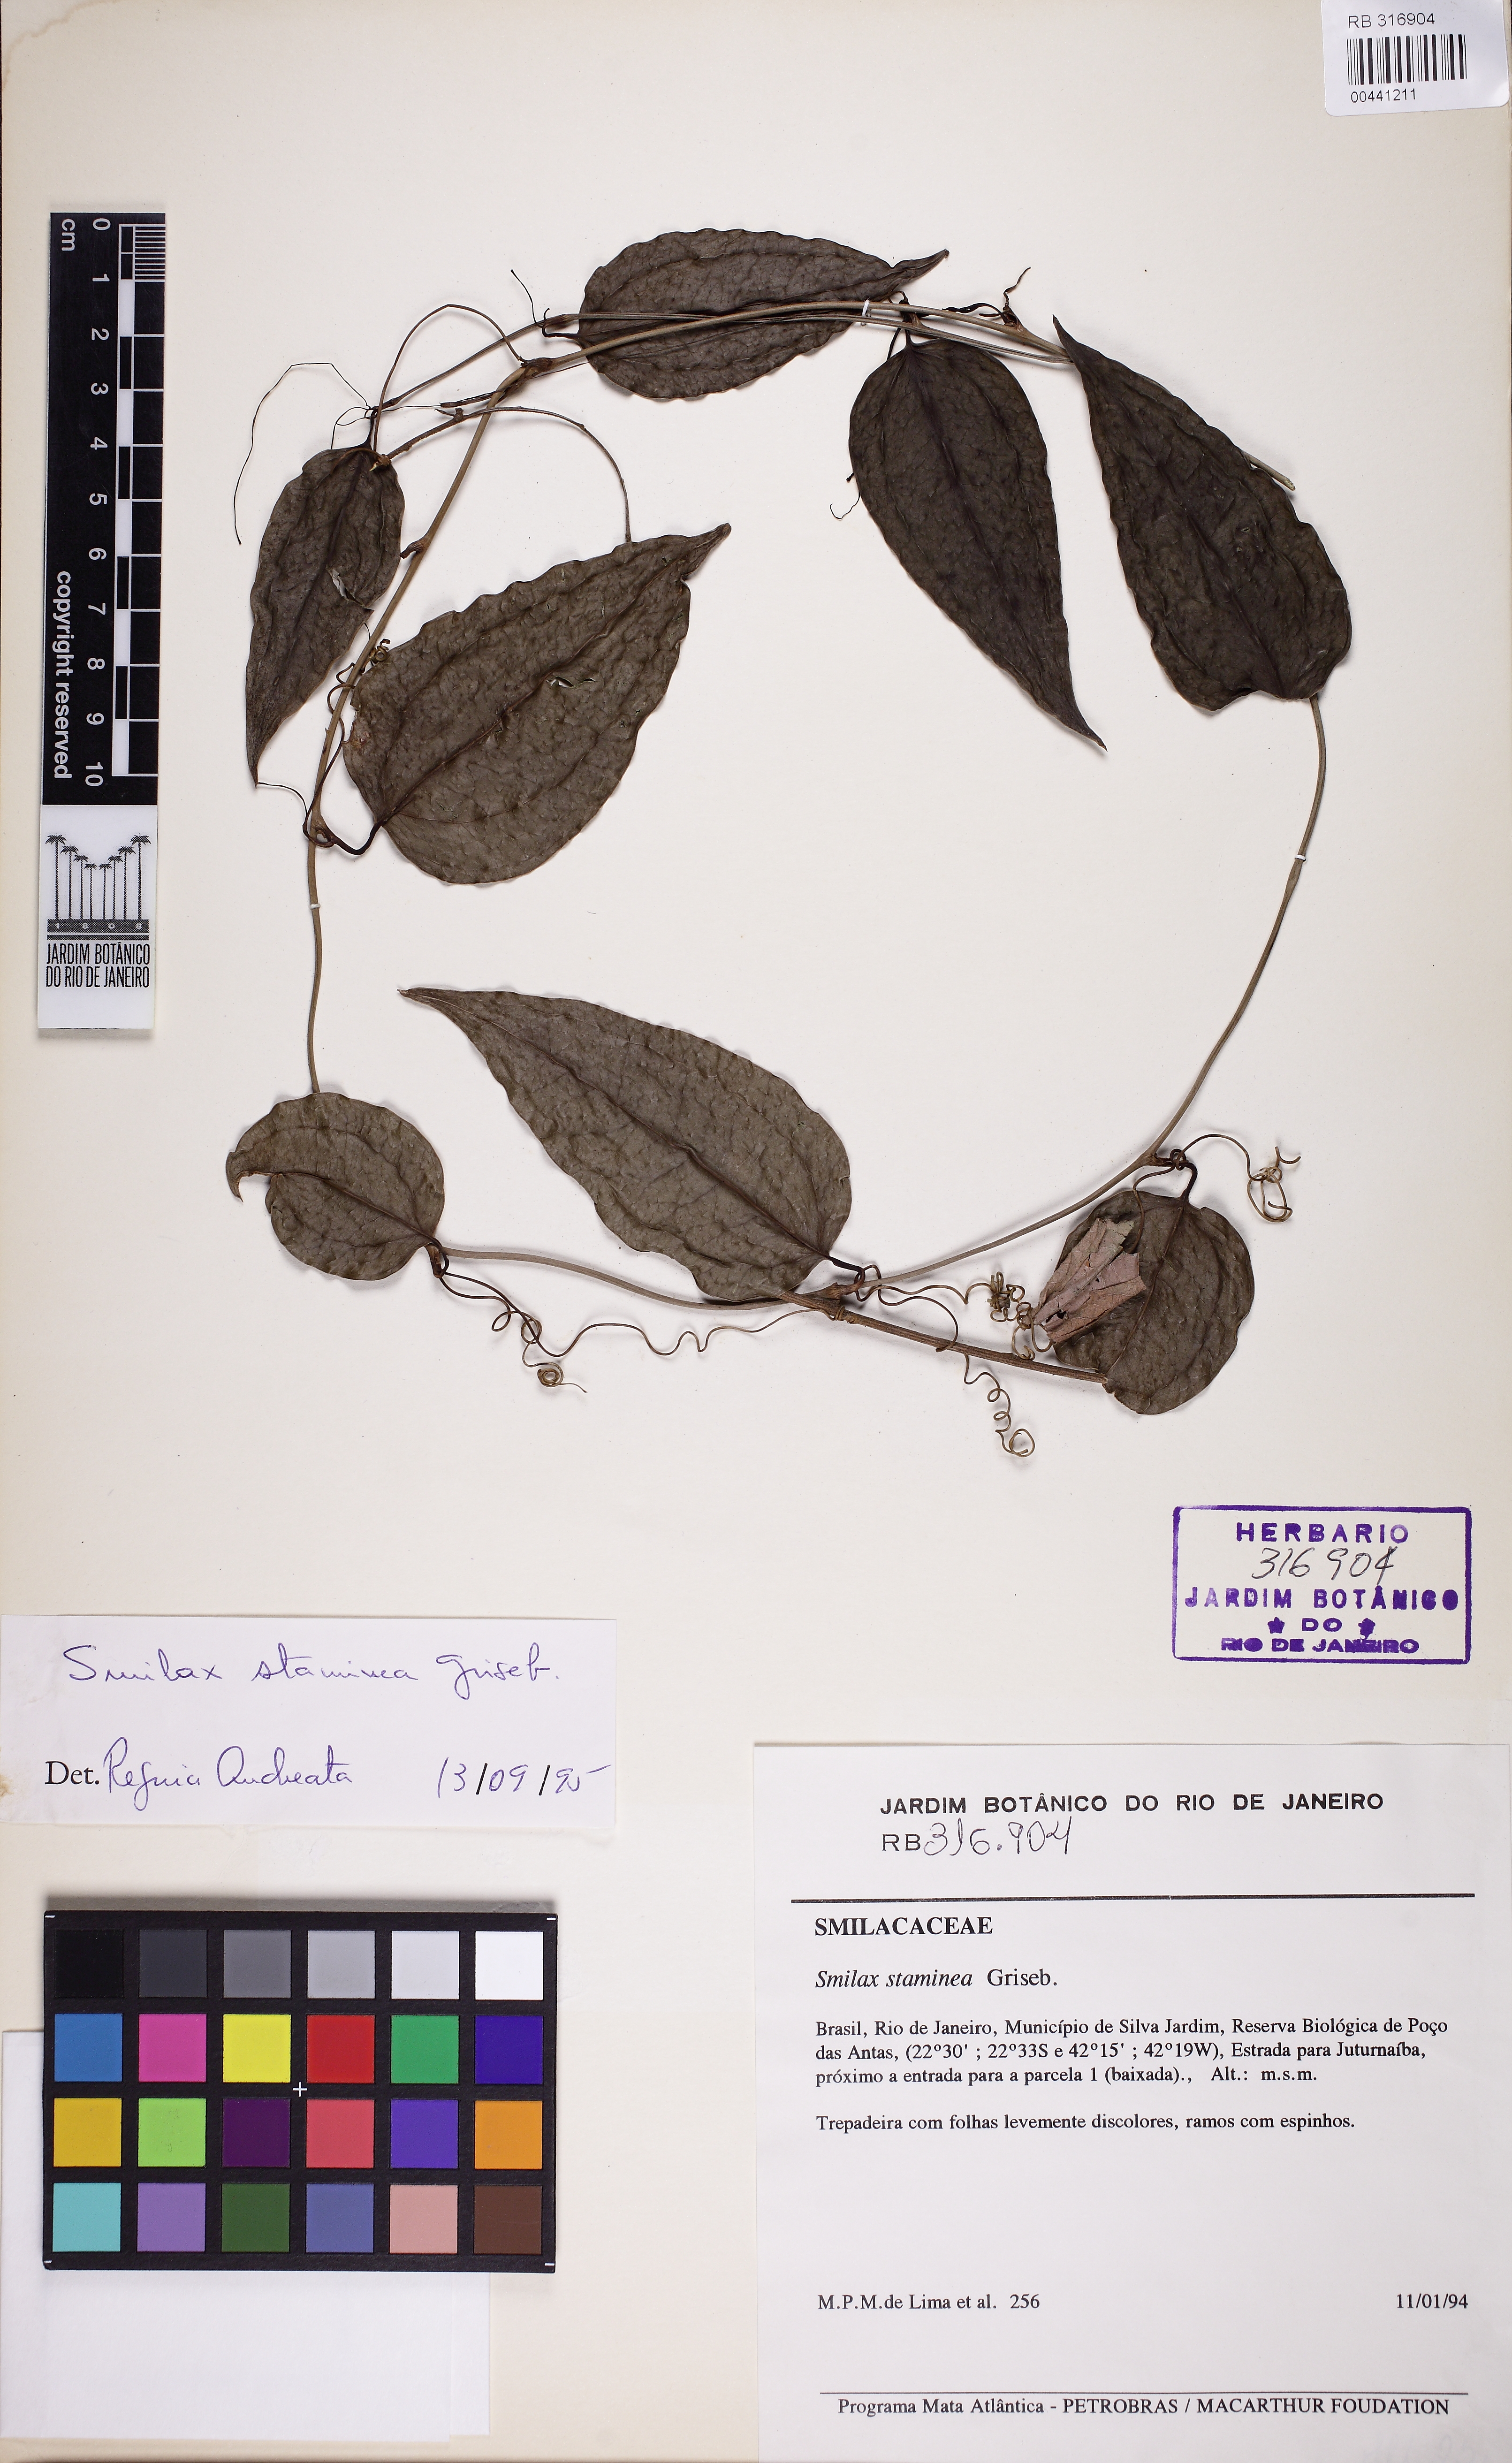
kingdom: Plantae
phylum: Tracheophyta
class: Liliopsida
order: Liliales
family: Smilacaceae
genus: Smilax
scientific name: Smilax domingensis
